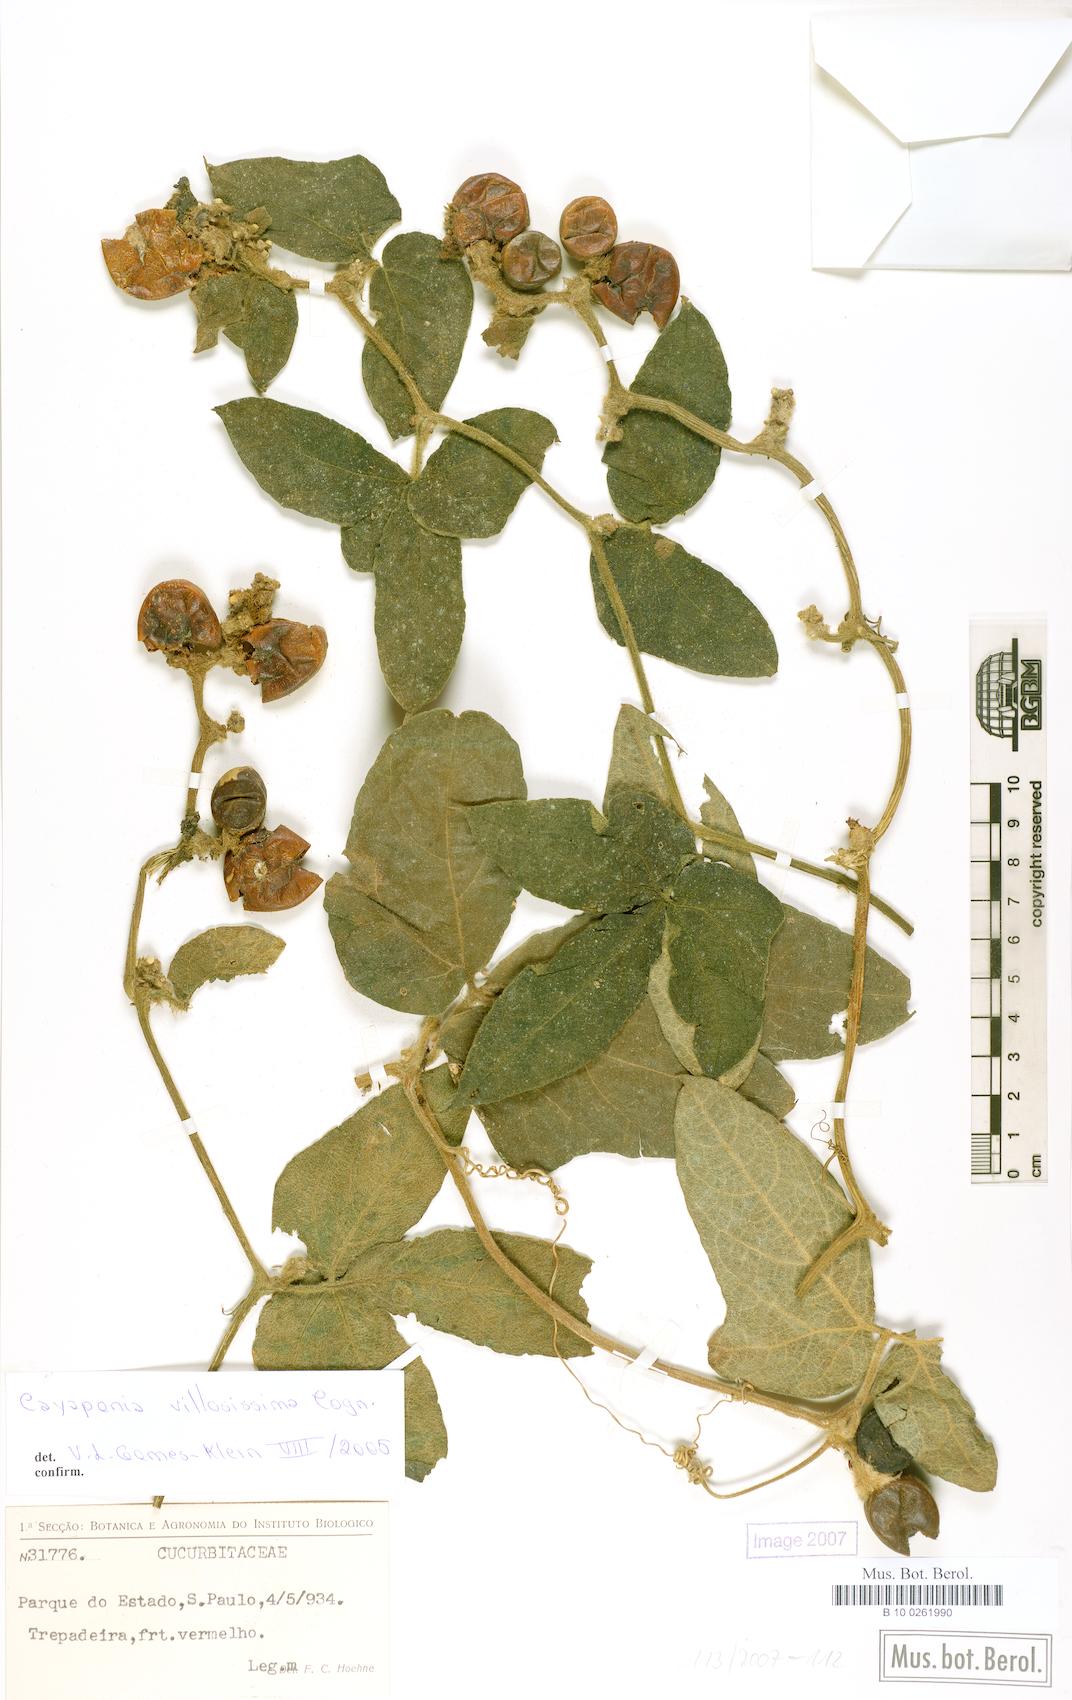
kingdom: Plantae
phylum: Tracheophyta
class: Magnoliopsida
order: Cucurbitales
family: Cucurbitaceae
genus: Cayaponia
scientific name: Cayaponia villosissima
